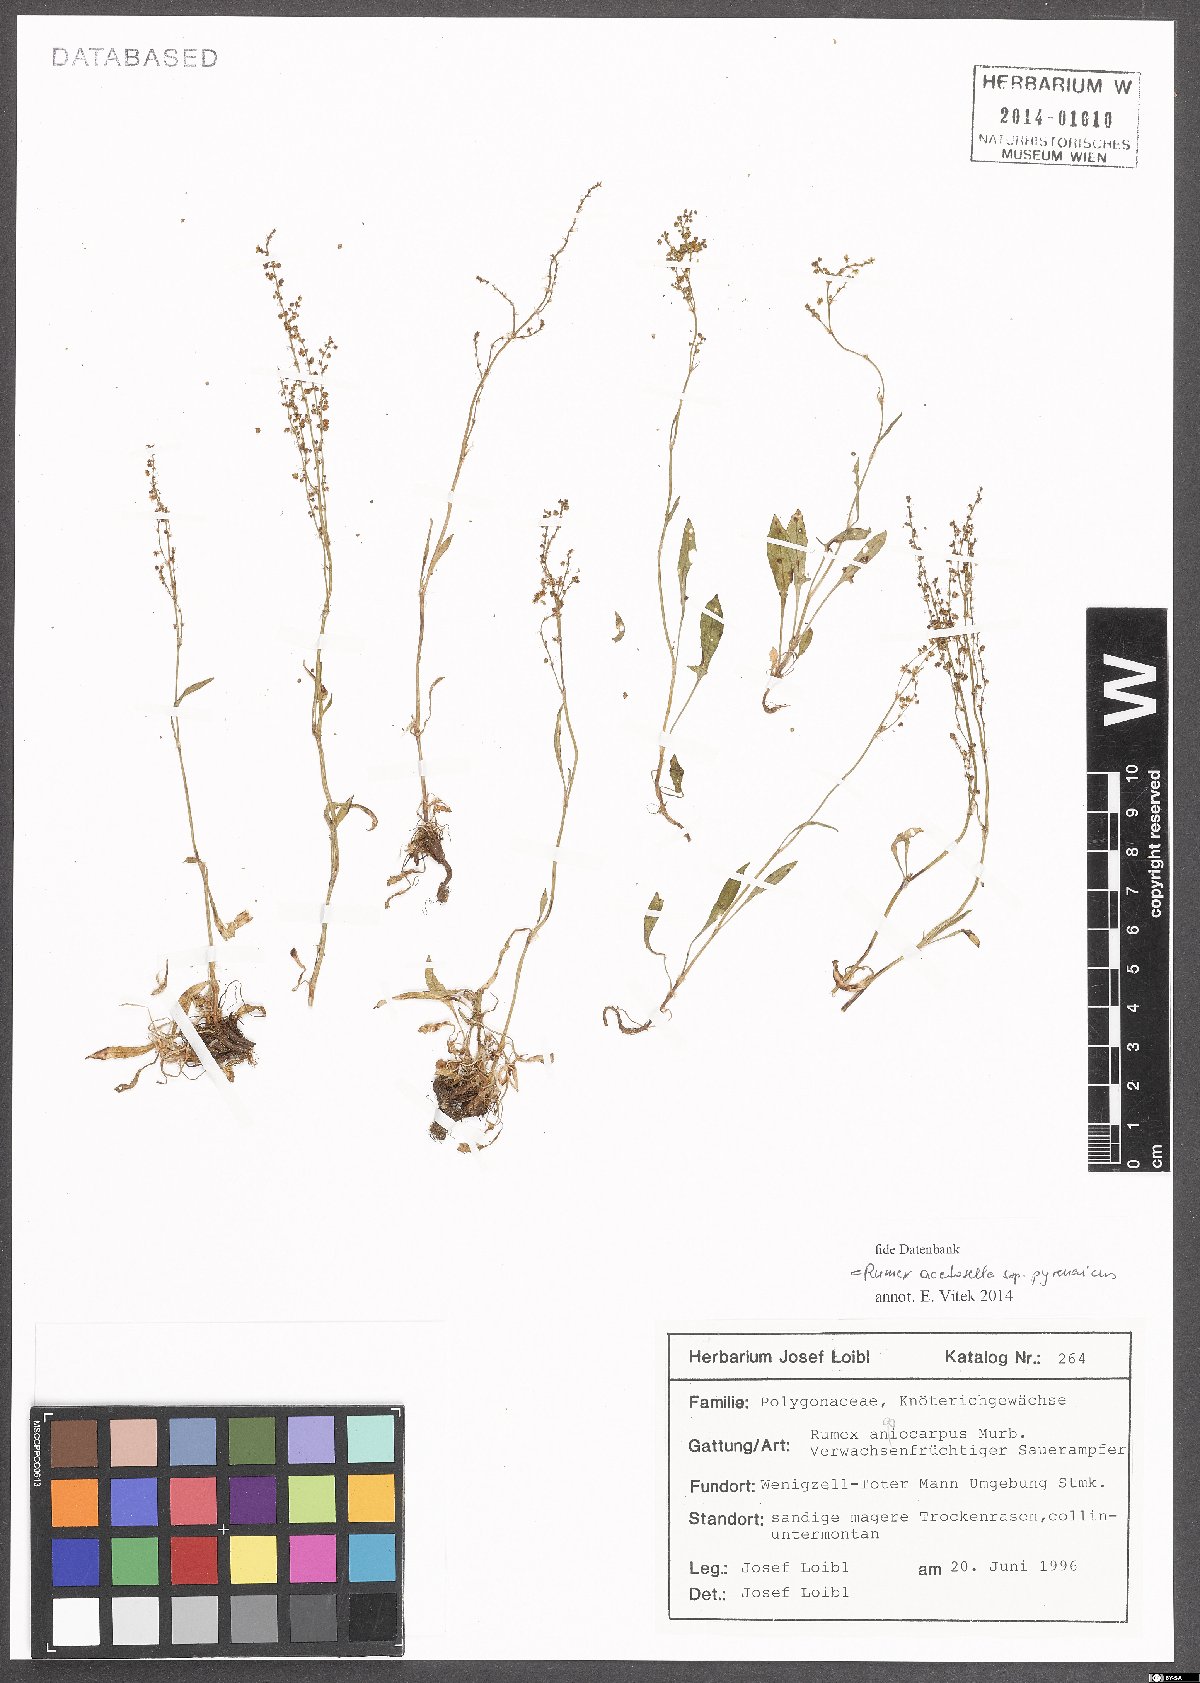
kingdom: Plantae
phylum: Tracheophyta
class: Magnoliopsida
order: Caryophyllales
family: Polygonaceae
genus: Rumex
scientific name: Rumex acetosella
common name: Common sheep sorrel
